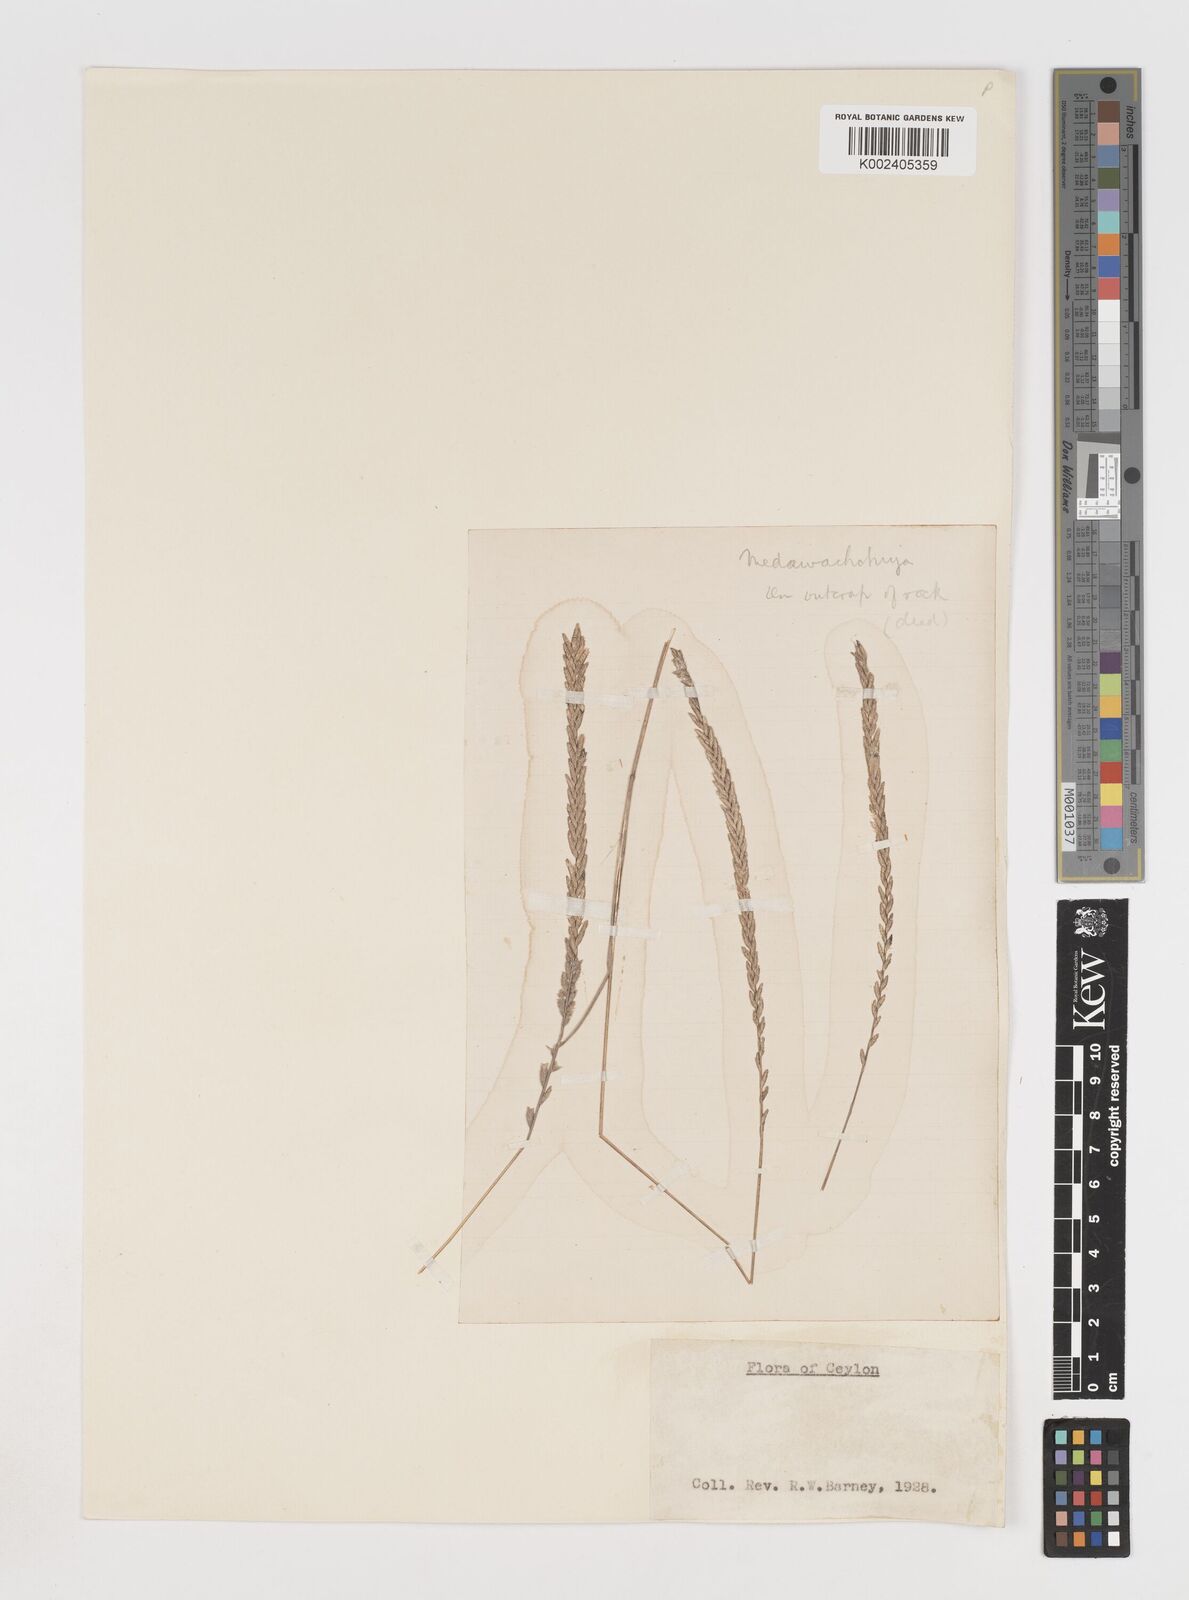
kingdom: Plantae
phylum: Tracheophyta
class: Liliopsida
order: Poales
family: Poaceae
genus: Eragrostiella
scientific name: Eragrostiella bifaria
